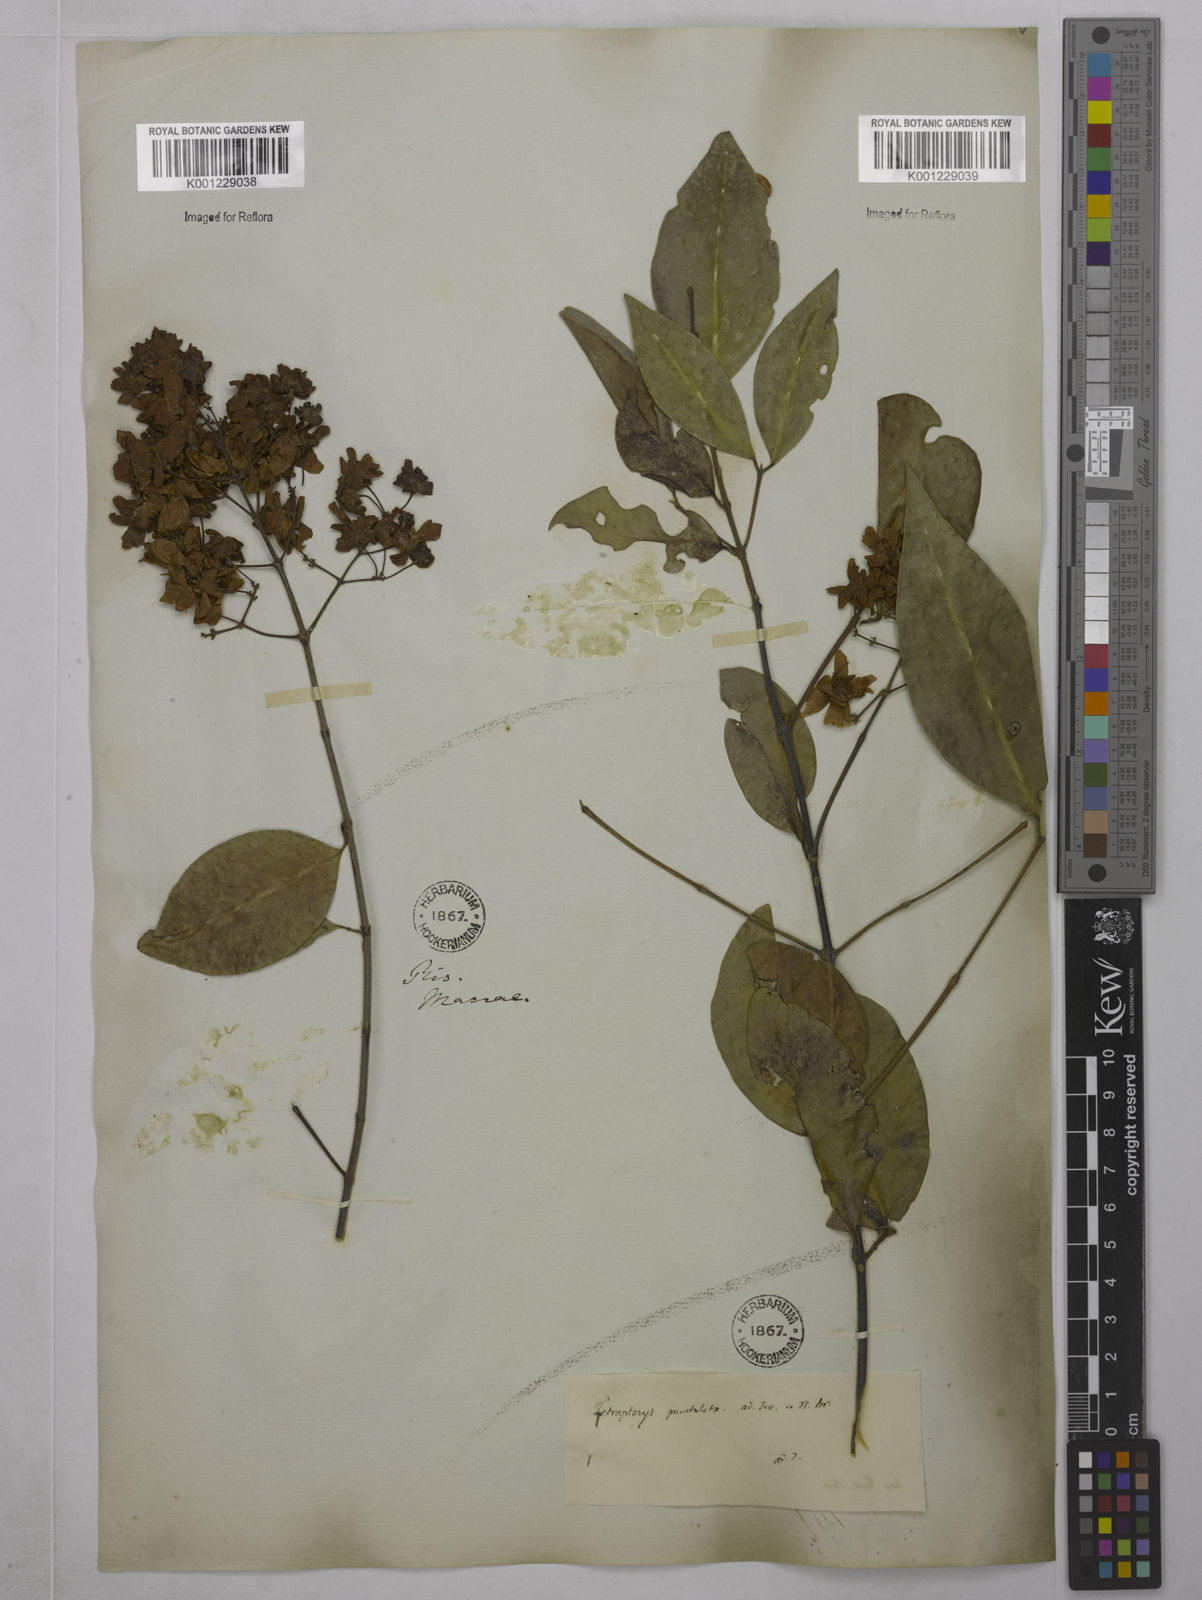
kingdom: Plantae
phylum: Tracheophyta
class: Magnoliopsida
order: Malpighiales
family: Malpighiaceae
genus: Niedenzuella
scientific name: Niedenzuella acutifolia
